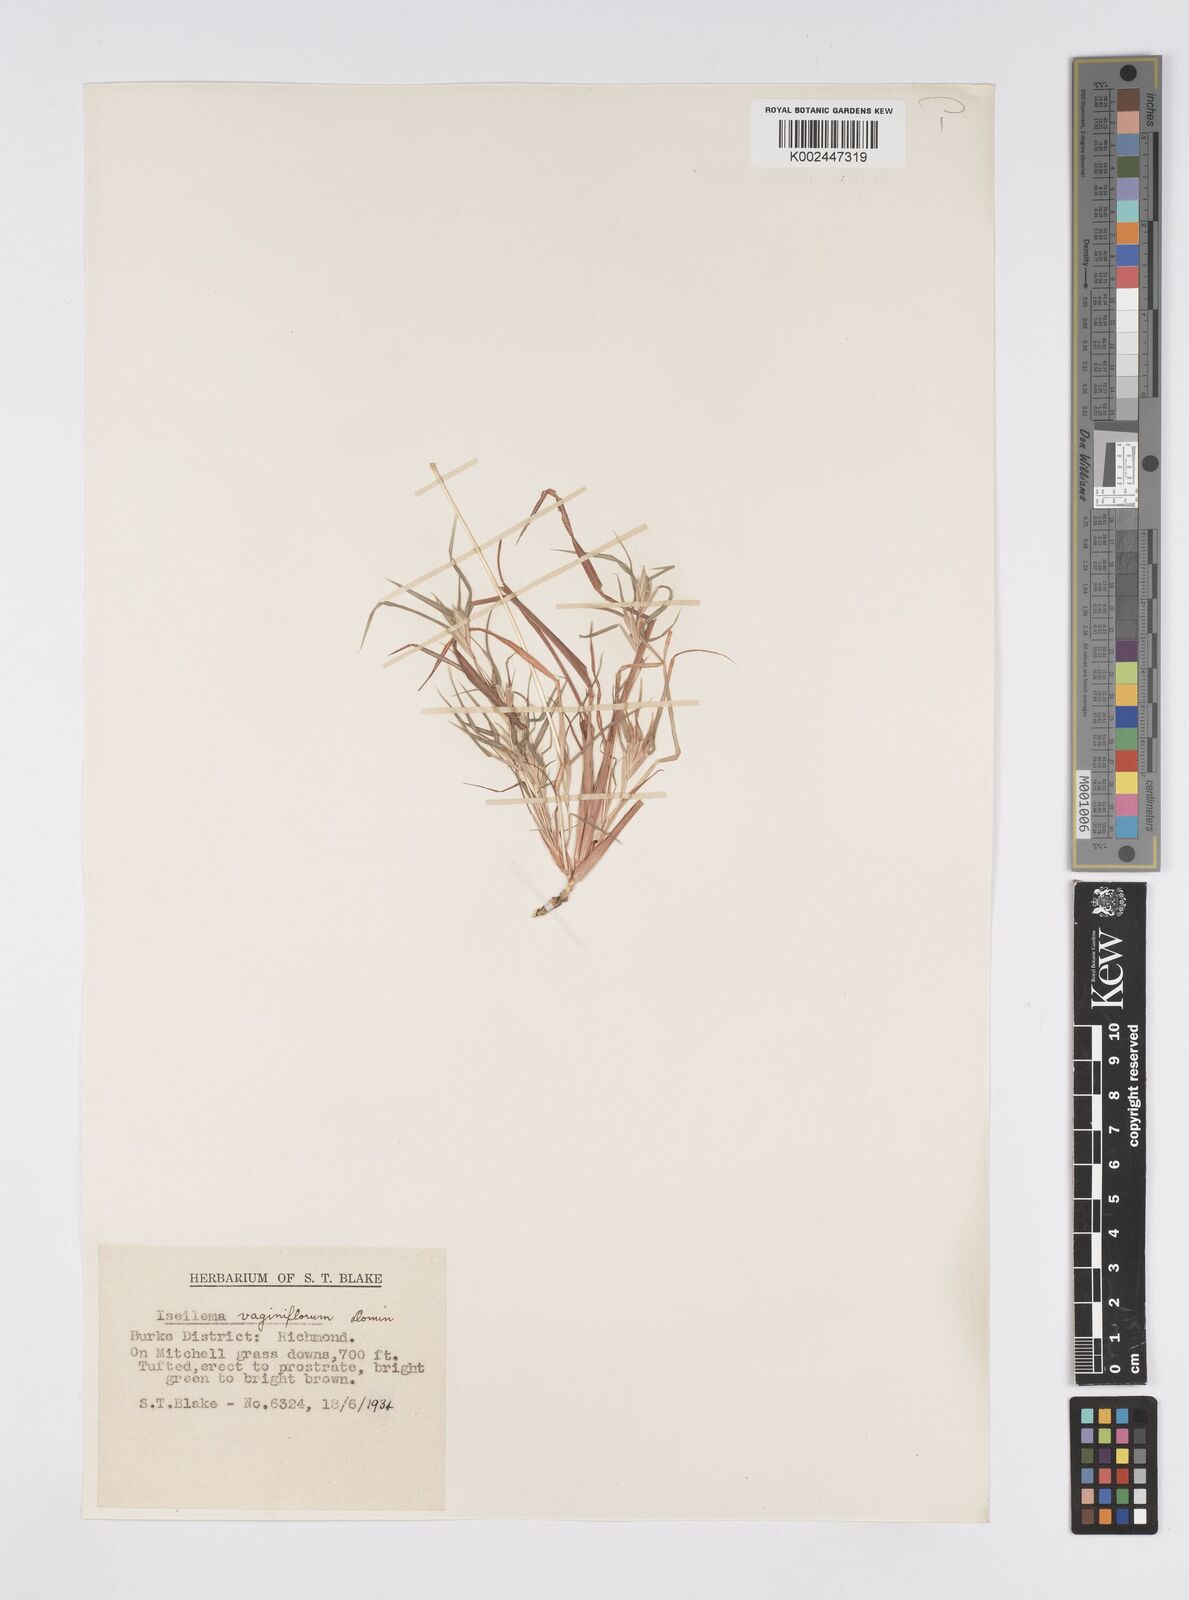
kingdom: Plantae
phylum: Tracheophyta
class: Liliopsida
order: Poales
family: Poaceae
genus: Iseilema
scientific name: Iseilema vaginiflorum
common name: Red flinders grass
